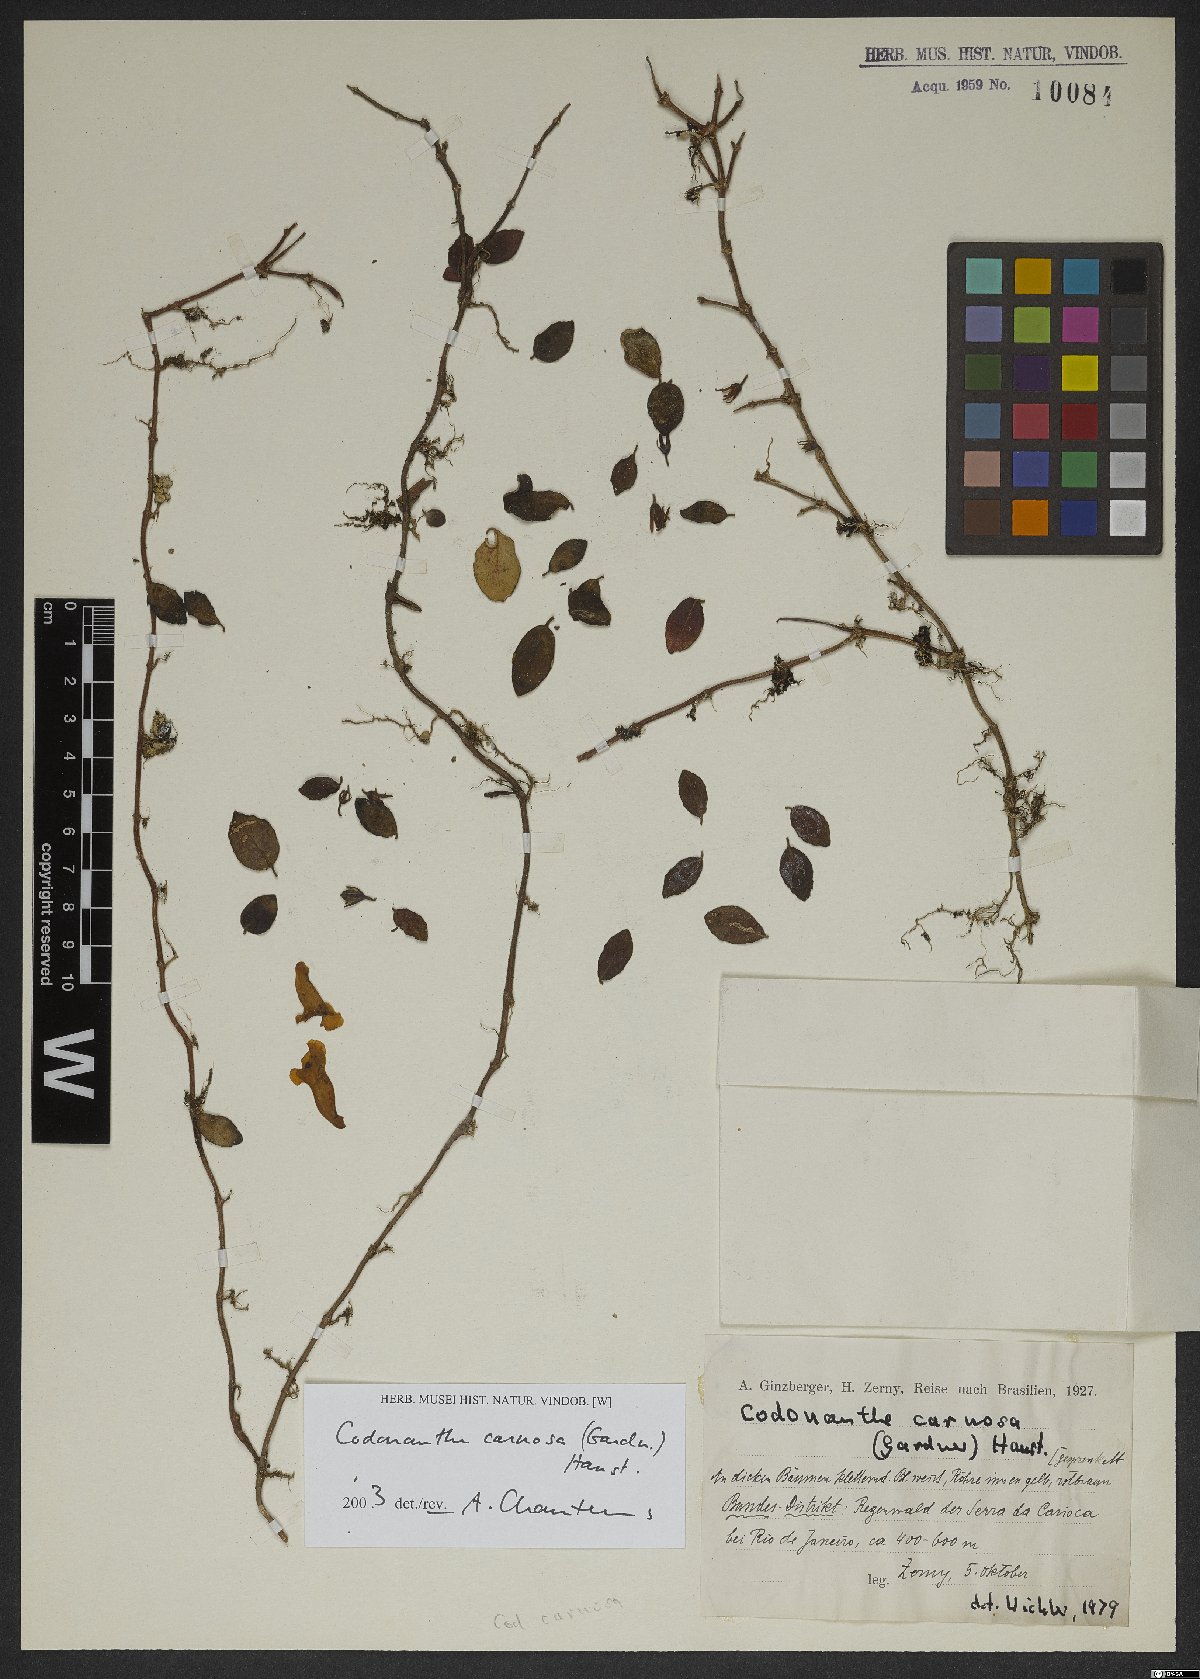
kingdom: Plantae
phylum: Tracheophyta
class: Magnoliopsida
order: Lamiales
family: Gesneriaceae
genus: Codonanthe
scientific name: Codonanthe carnosa
